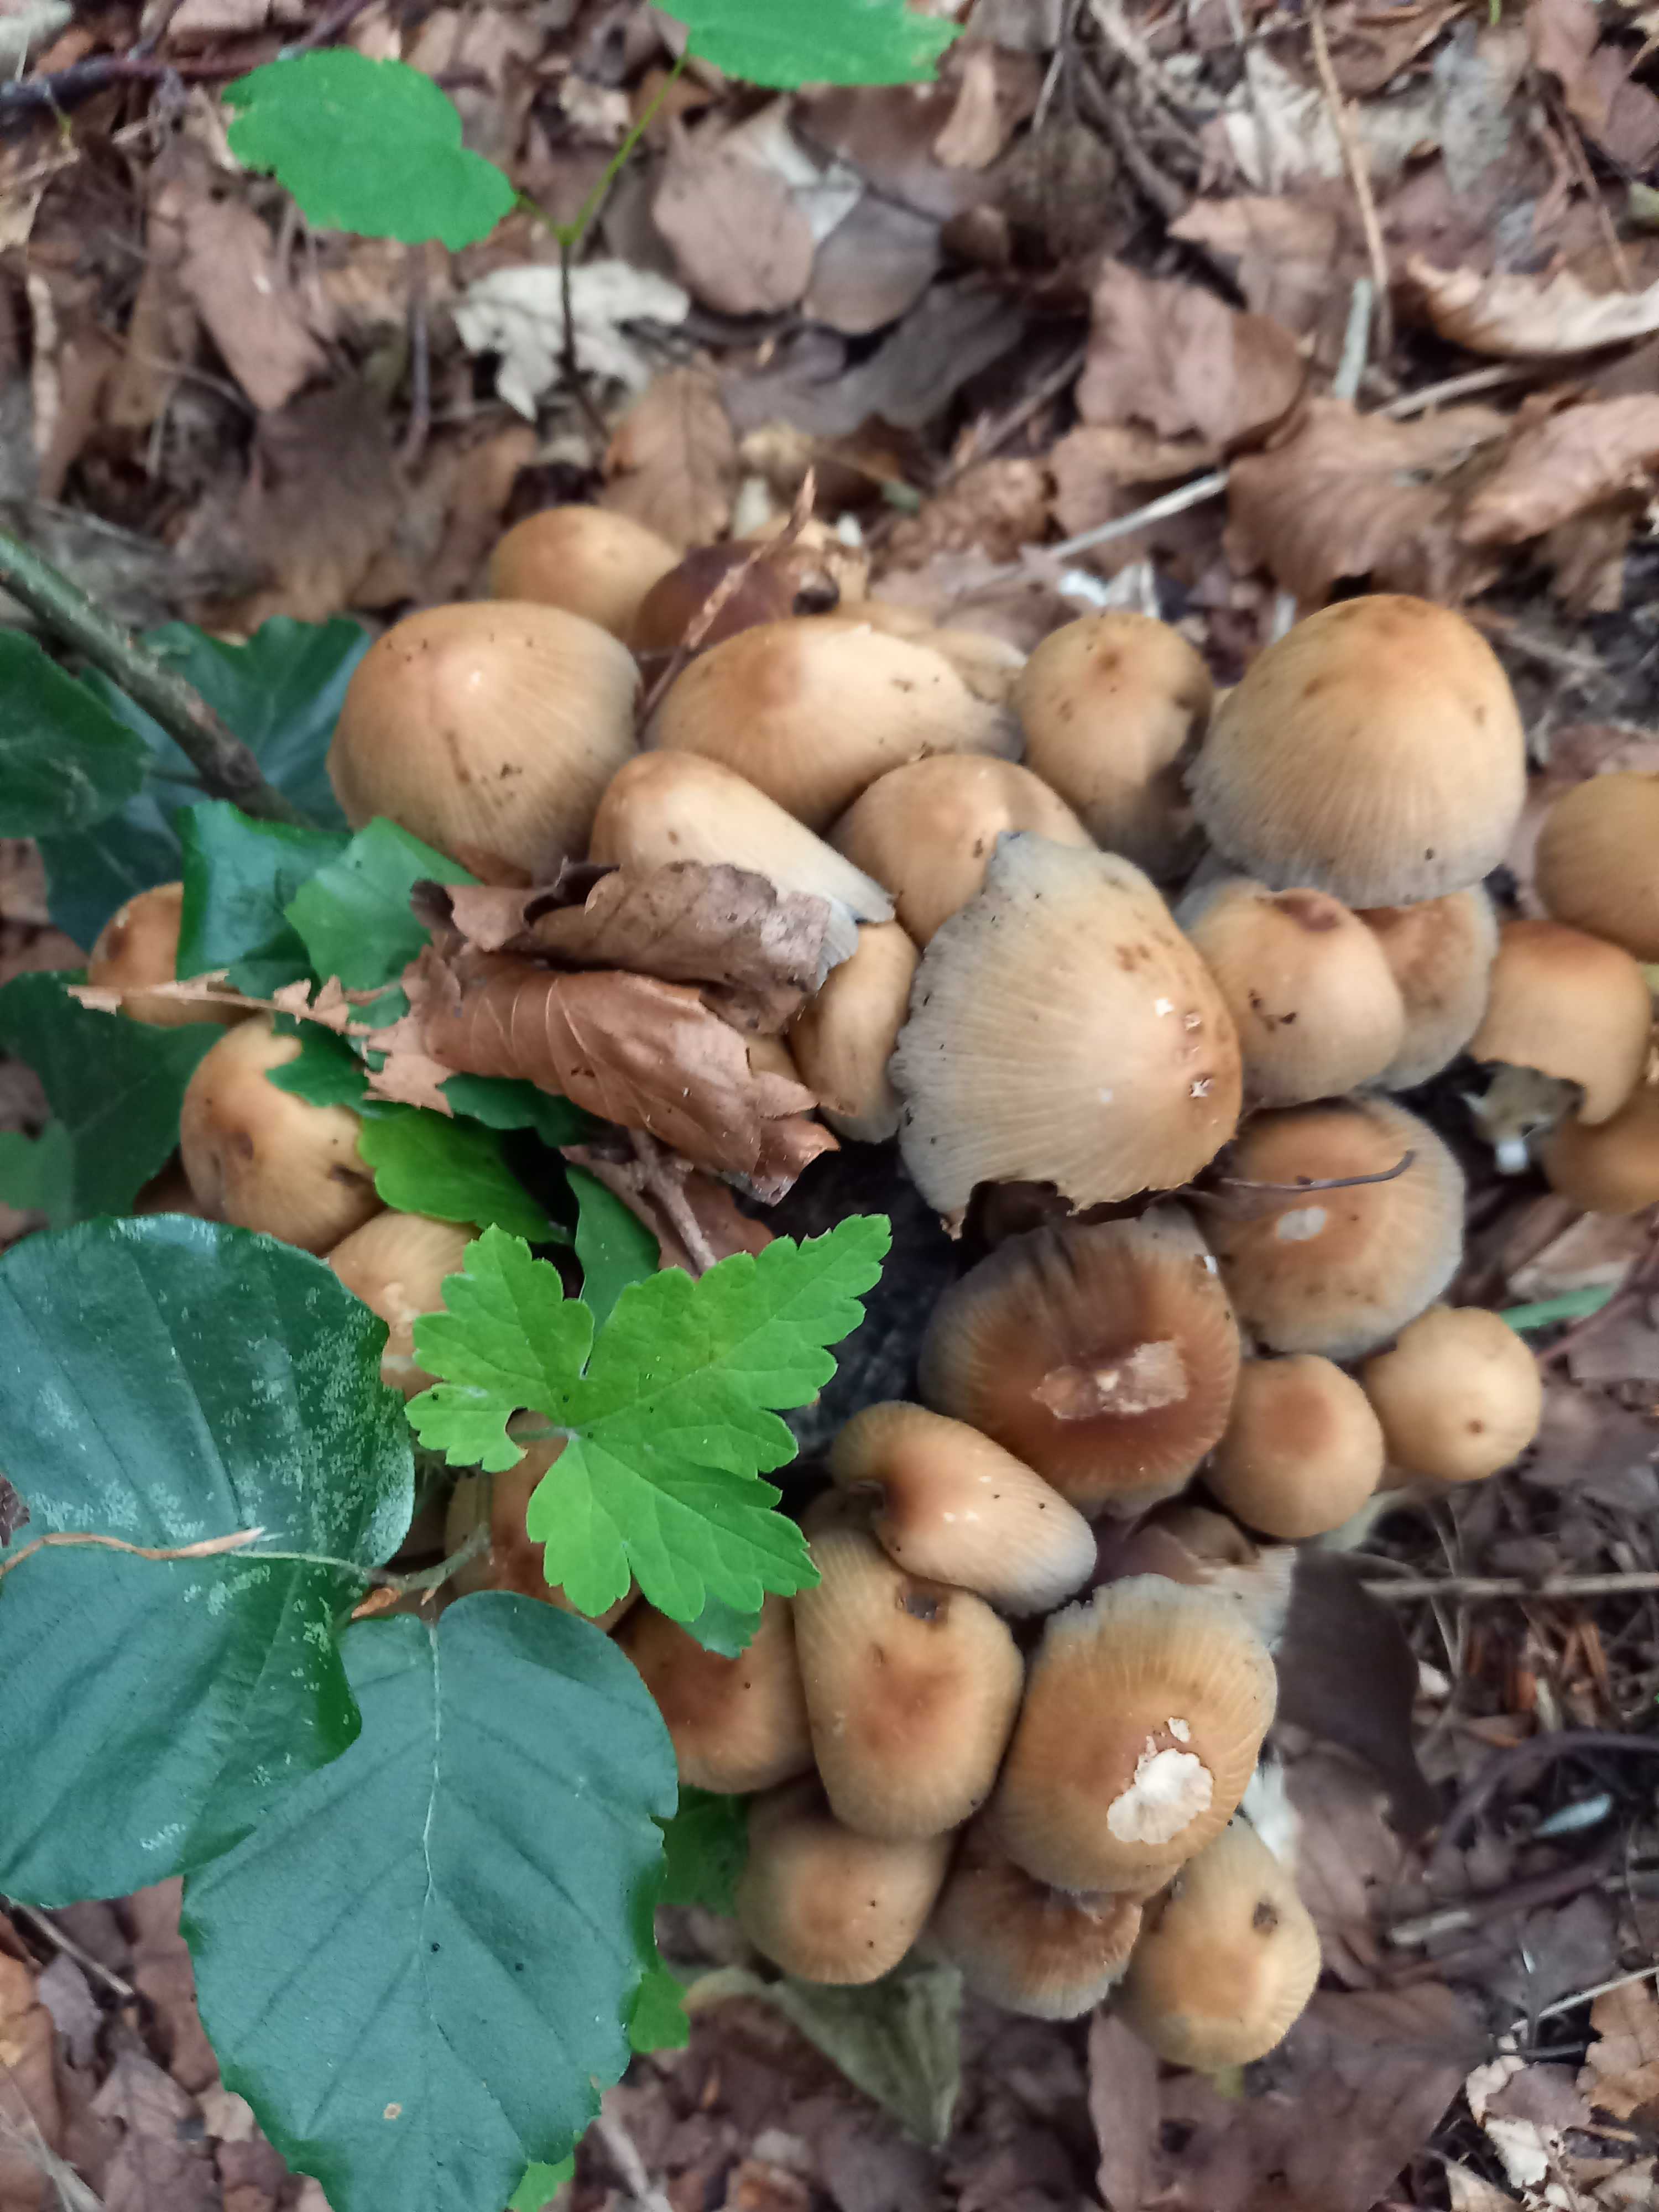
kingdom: Fungi
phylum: Basidiomycota
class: Agaricomycetes
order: Agaricales
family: Psathyrellaceae
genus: Coprinellus
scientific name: Coprinellus micaceus
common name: glimmer-blækhat
